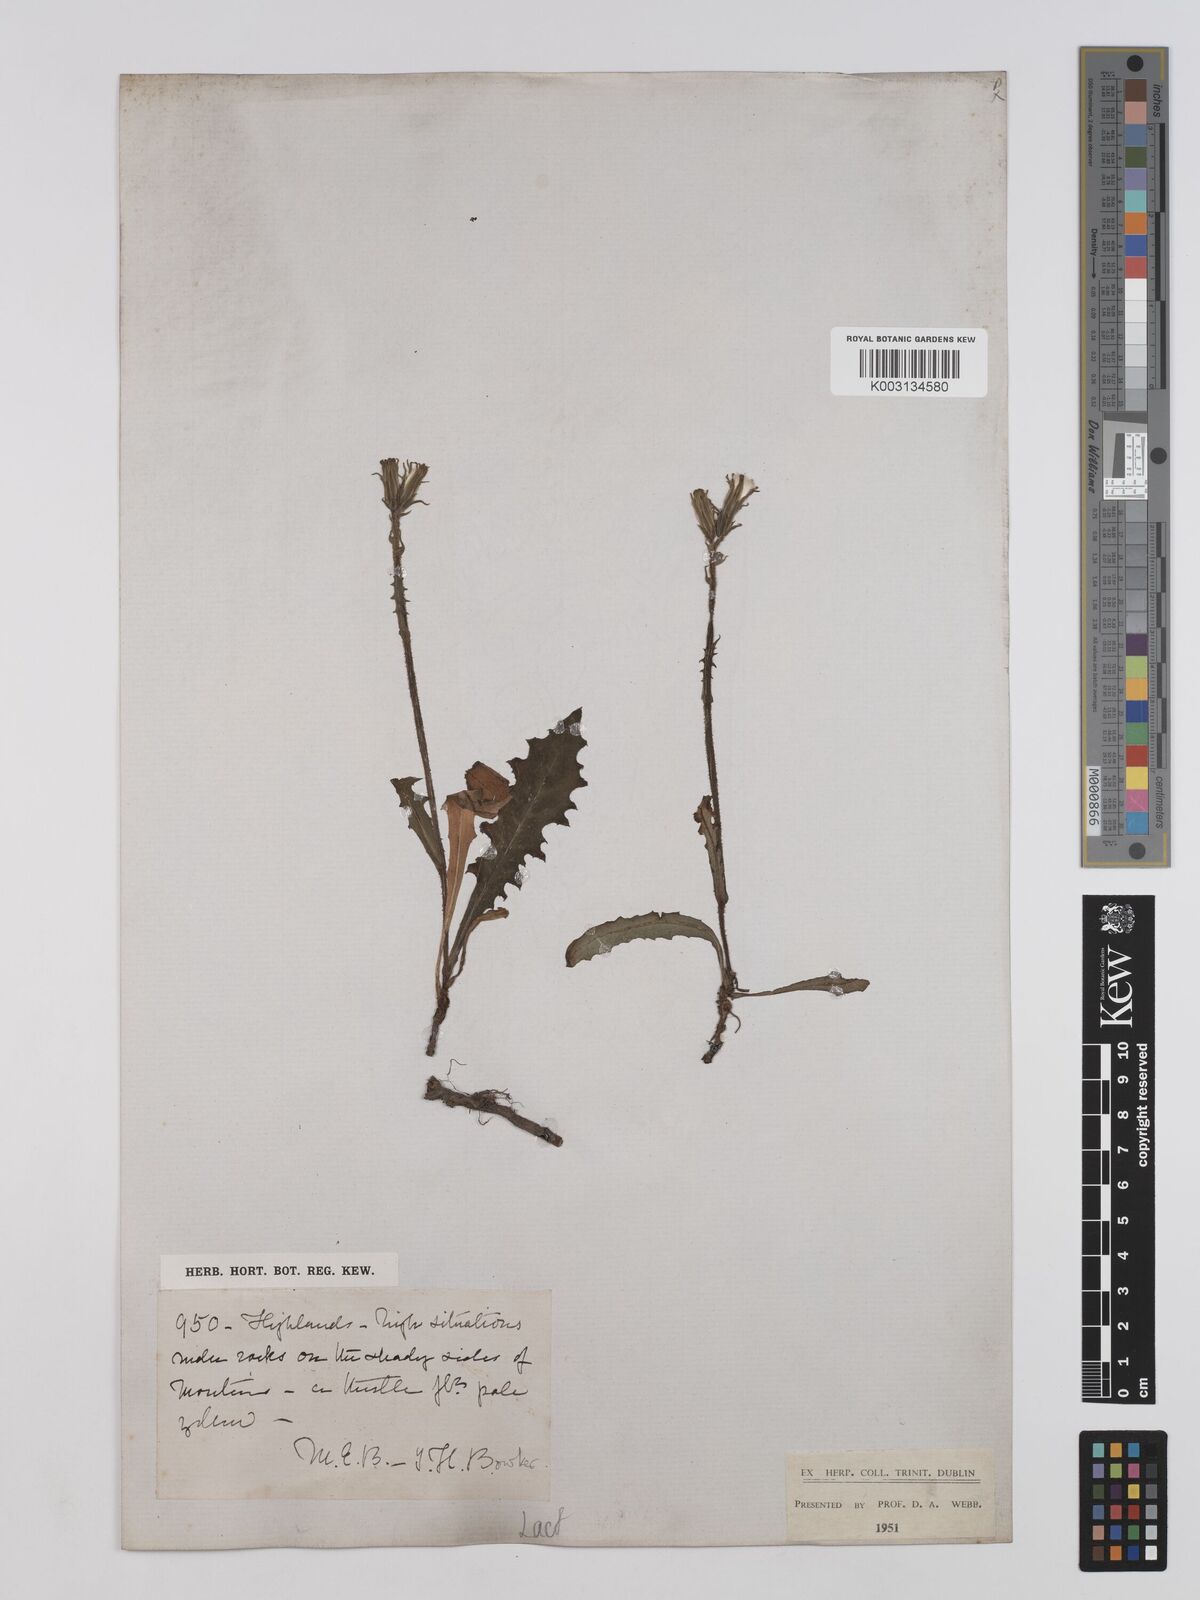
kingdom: Plantae
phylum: Tracheophyta
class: Magnoliopsida
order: Asterales
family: Asteraceae
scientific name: Asteraceae
